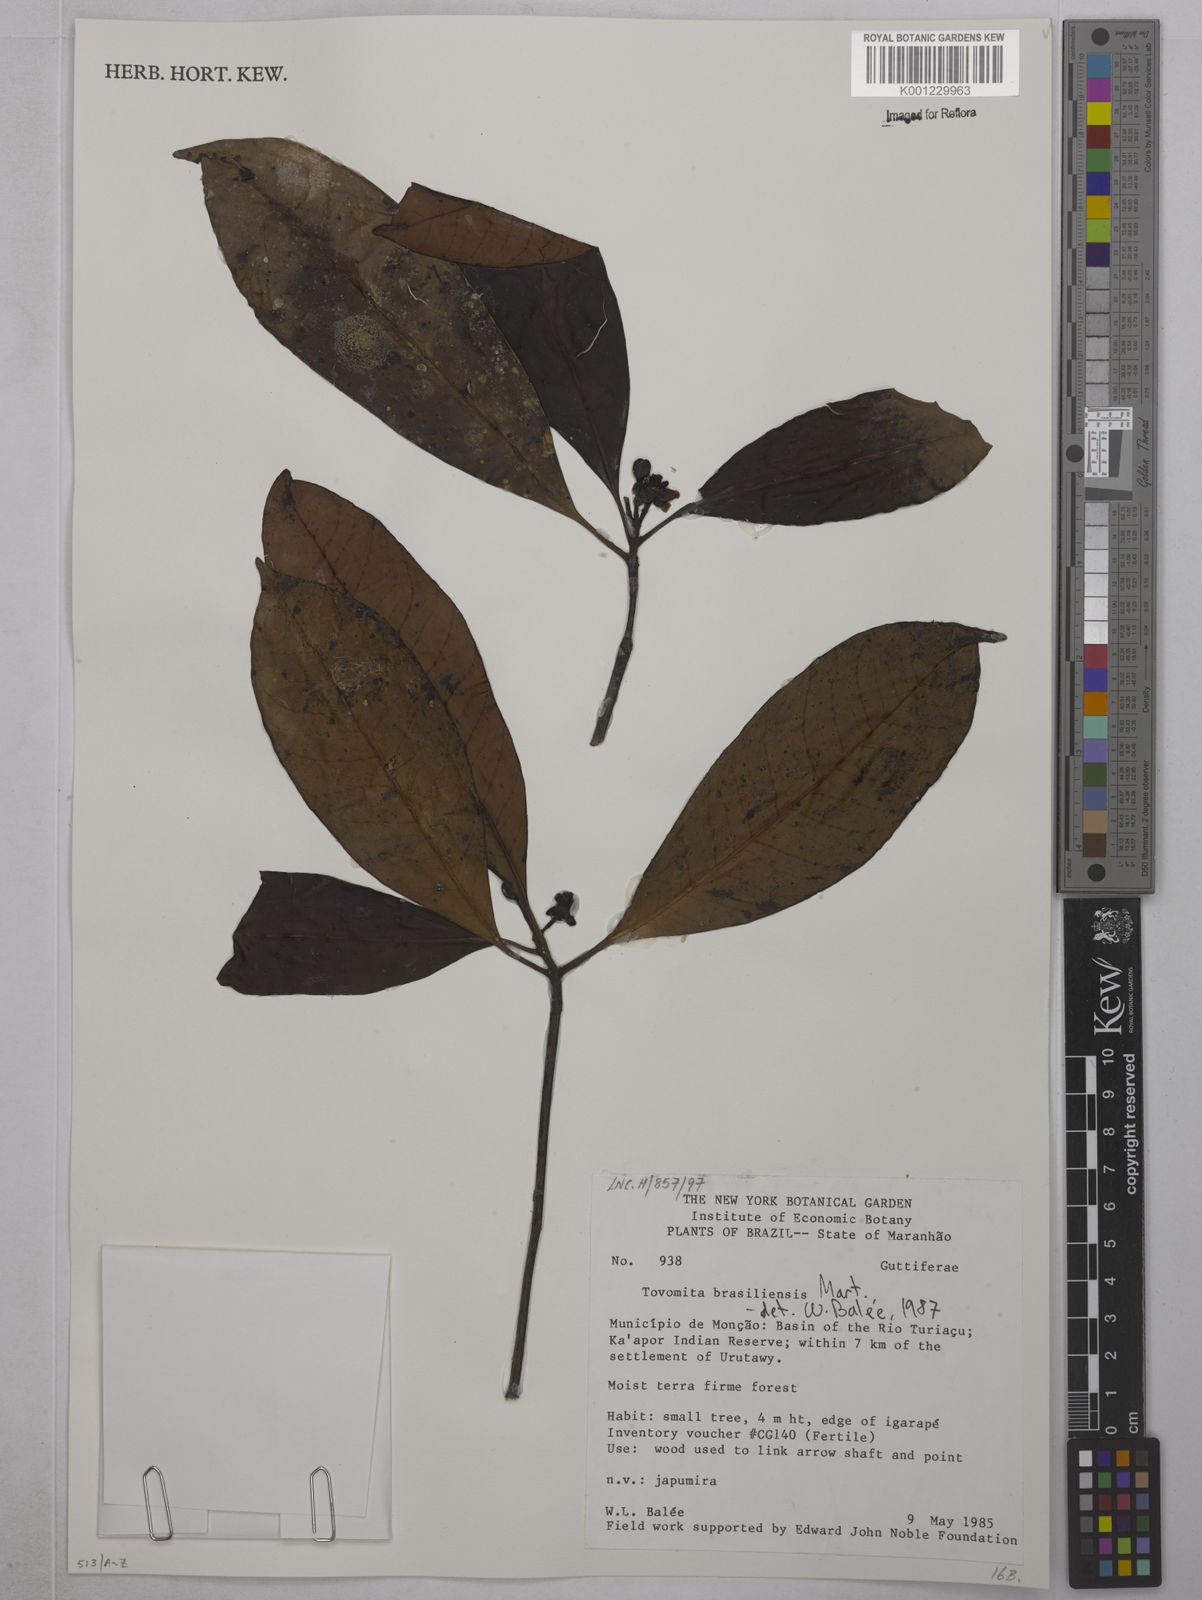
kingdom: Plantae
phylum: Tracheophyta
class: Magnoliopsida
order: Malpighiales
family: Clusiaceae
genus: Tovomita
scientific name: Tovomita brevistaminea
